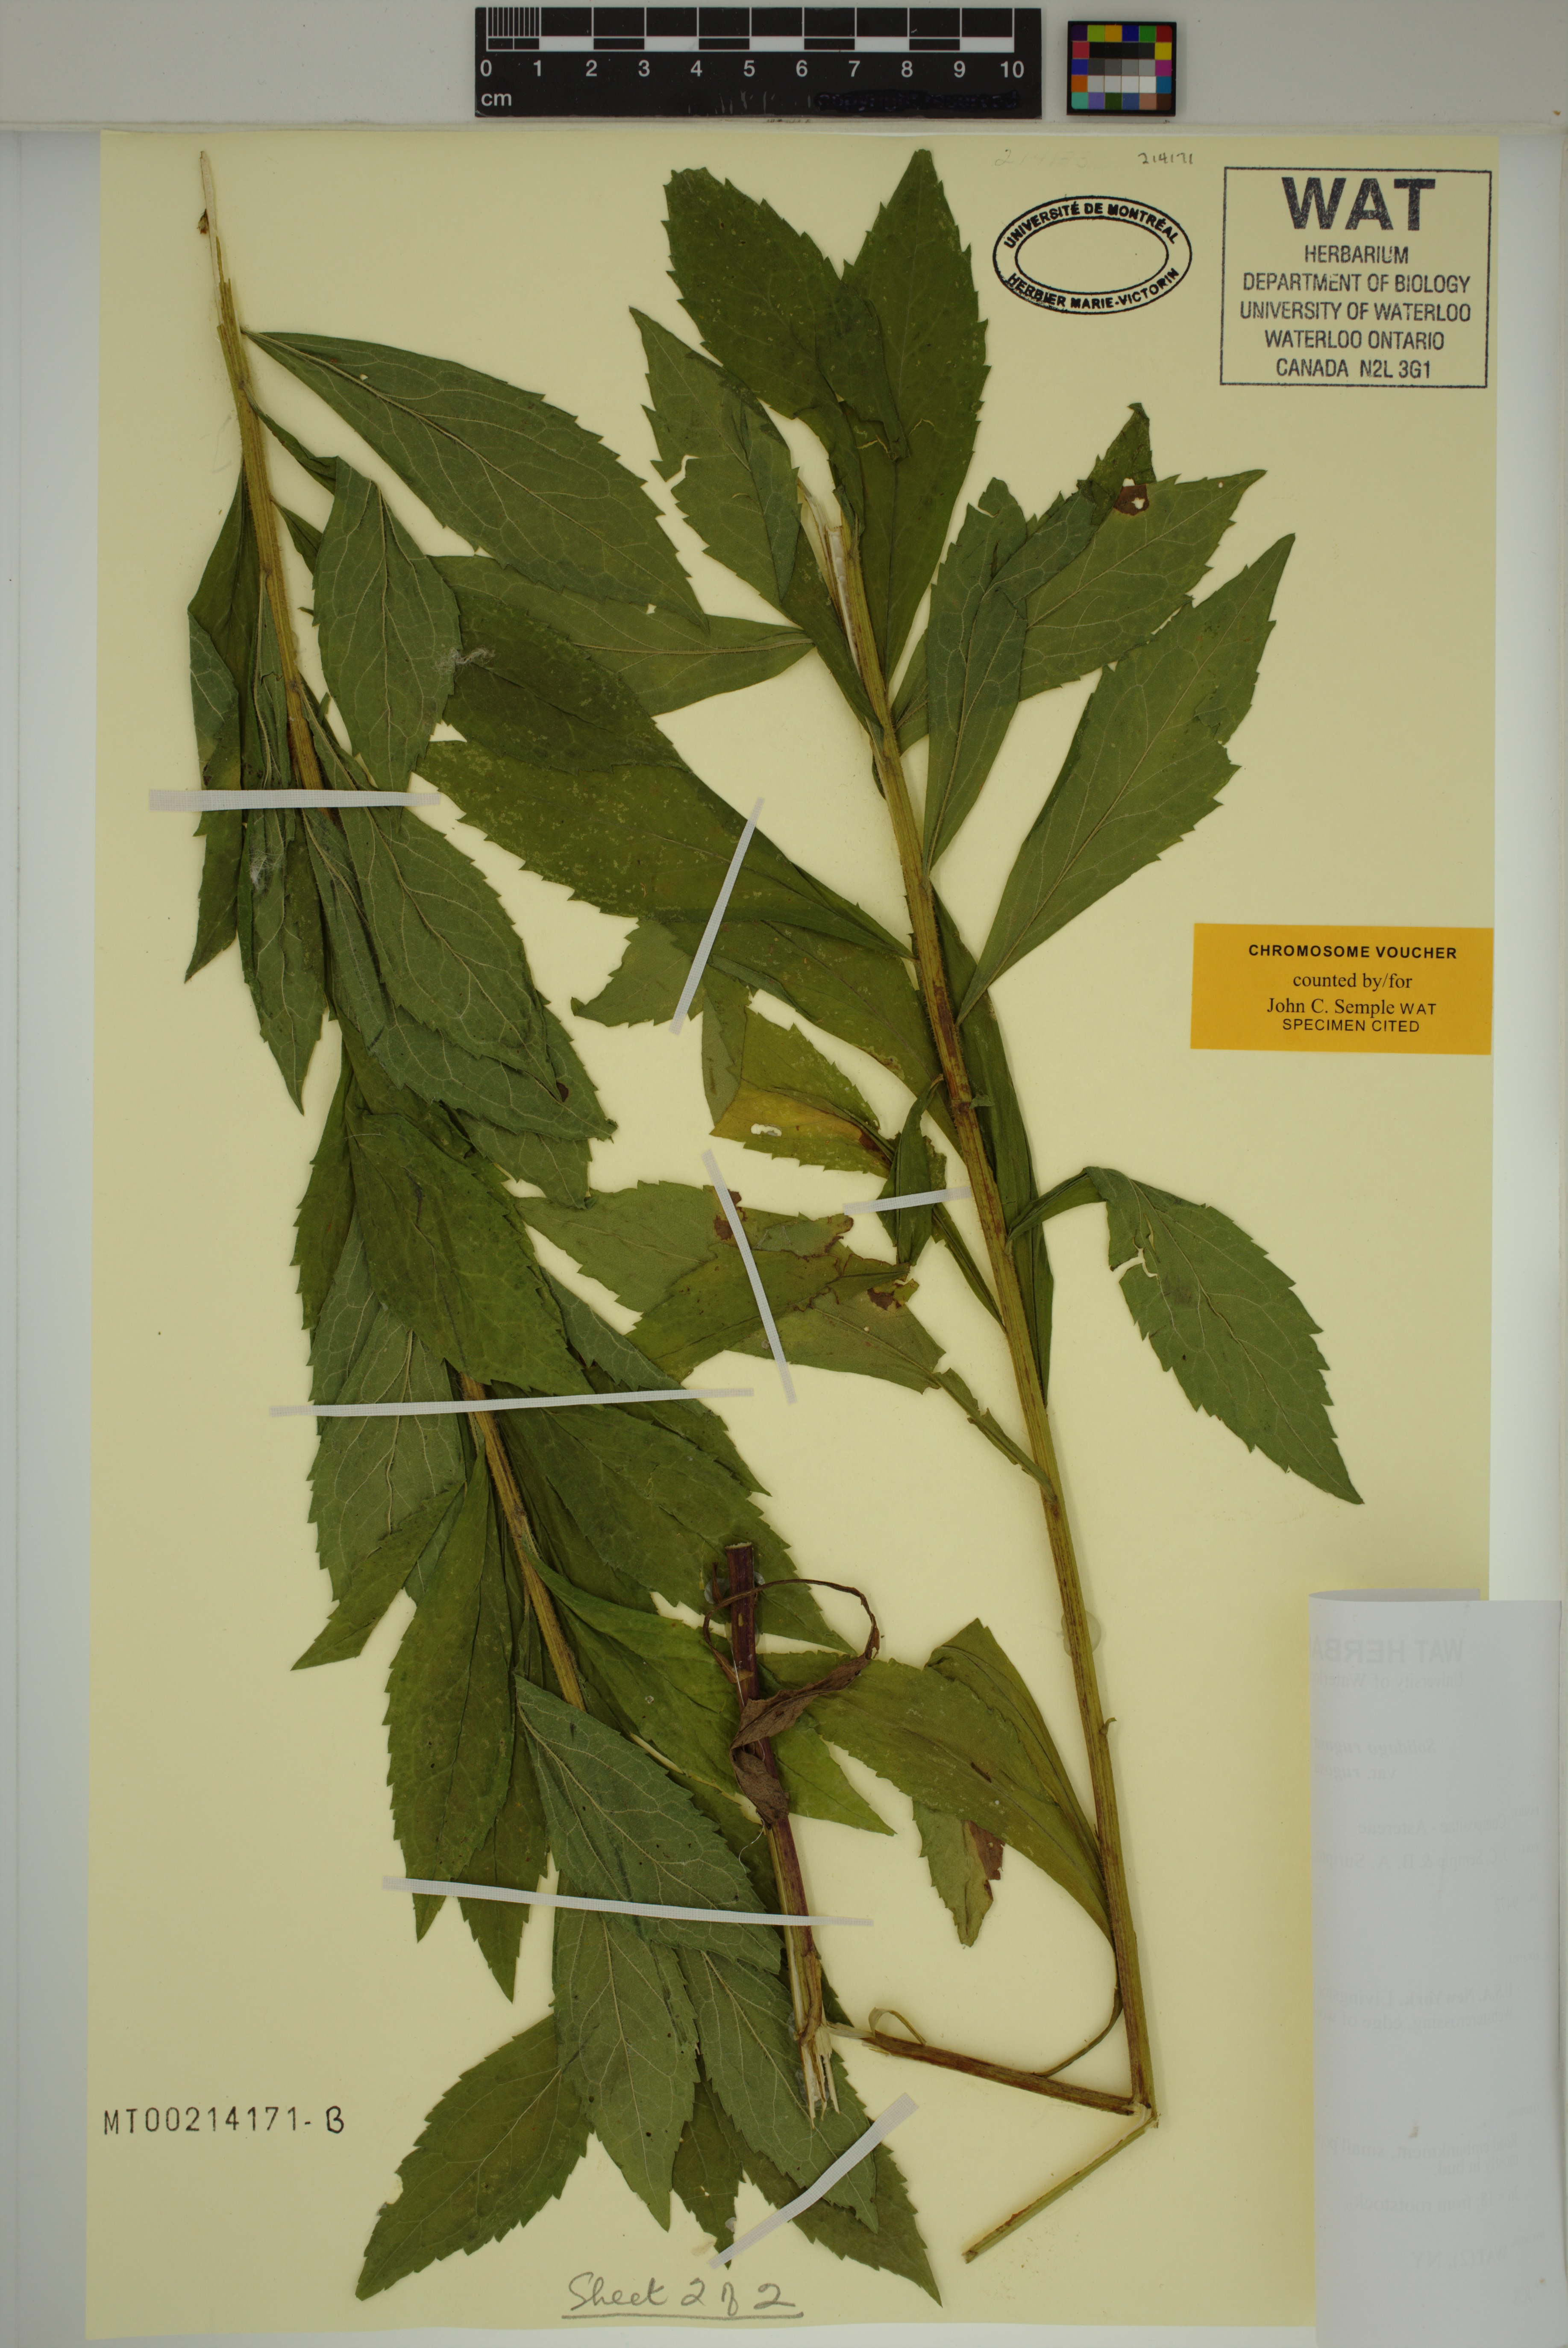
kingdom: Plantae
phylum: Tracheophyta
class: Magnoliopsida
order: Asterales
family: Asteraceae
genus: Solidago
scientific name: Solidago rugosa
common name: Rough-stemmed goldenrod
